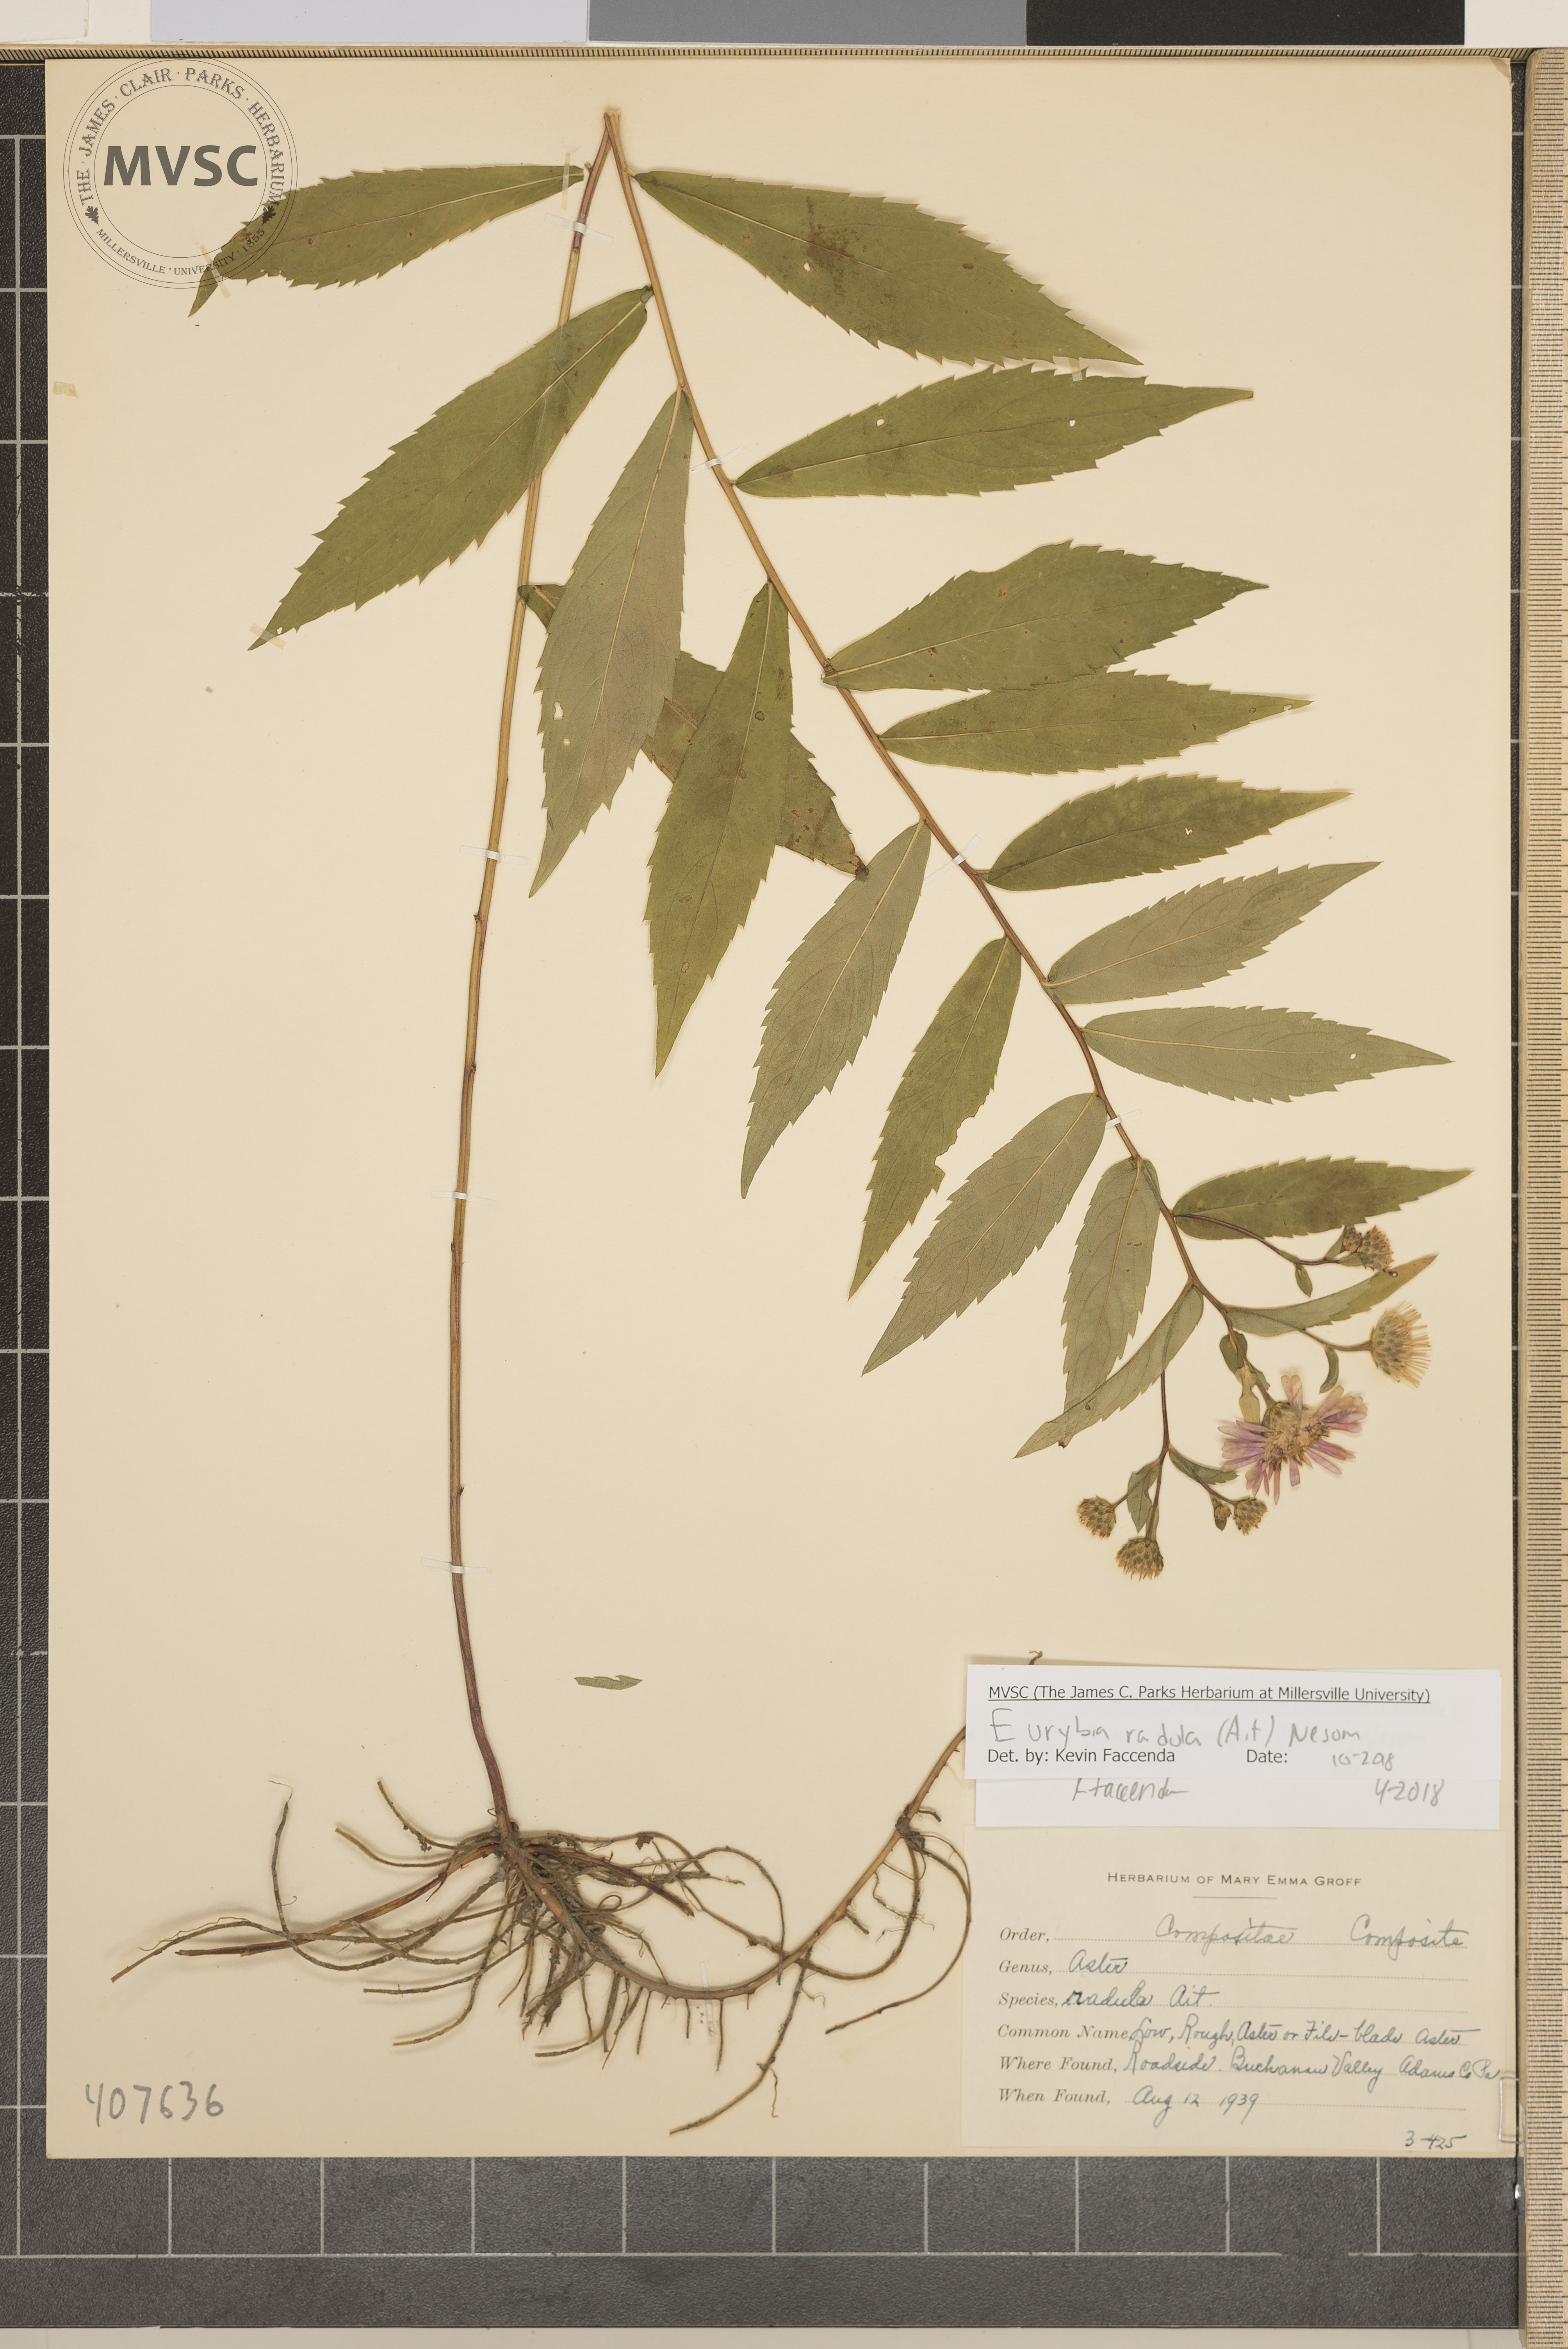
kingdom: Plantae
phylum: Tracheophyta
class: Magnoliopsida
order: Asterales
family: Asteraceae
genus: Eurybia
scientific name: Eurybia radula
